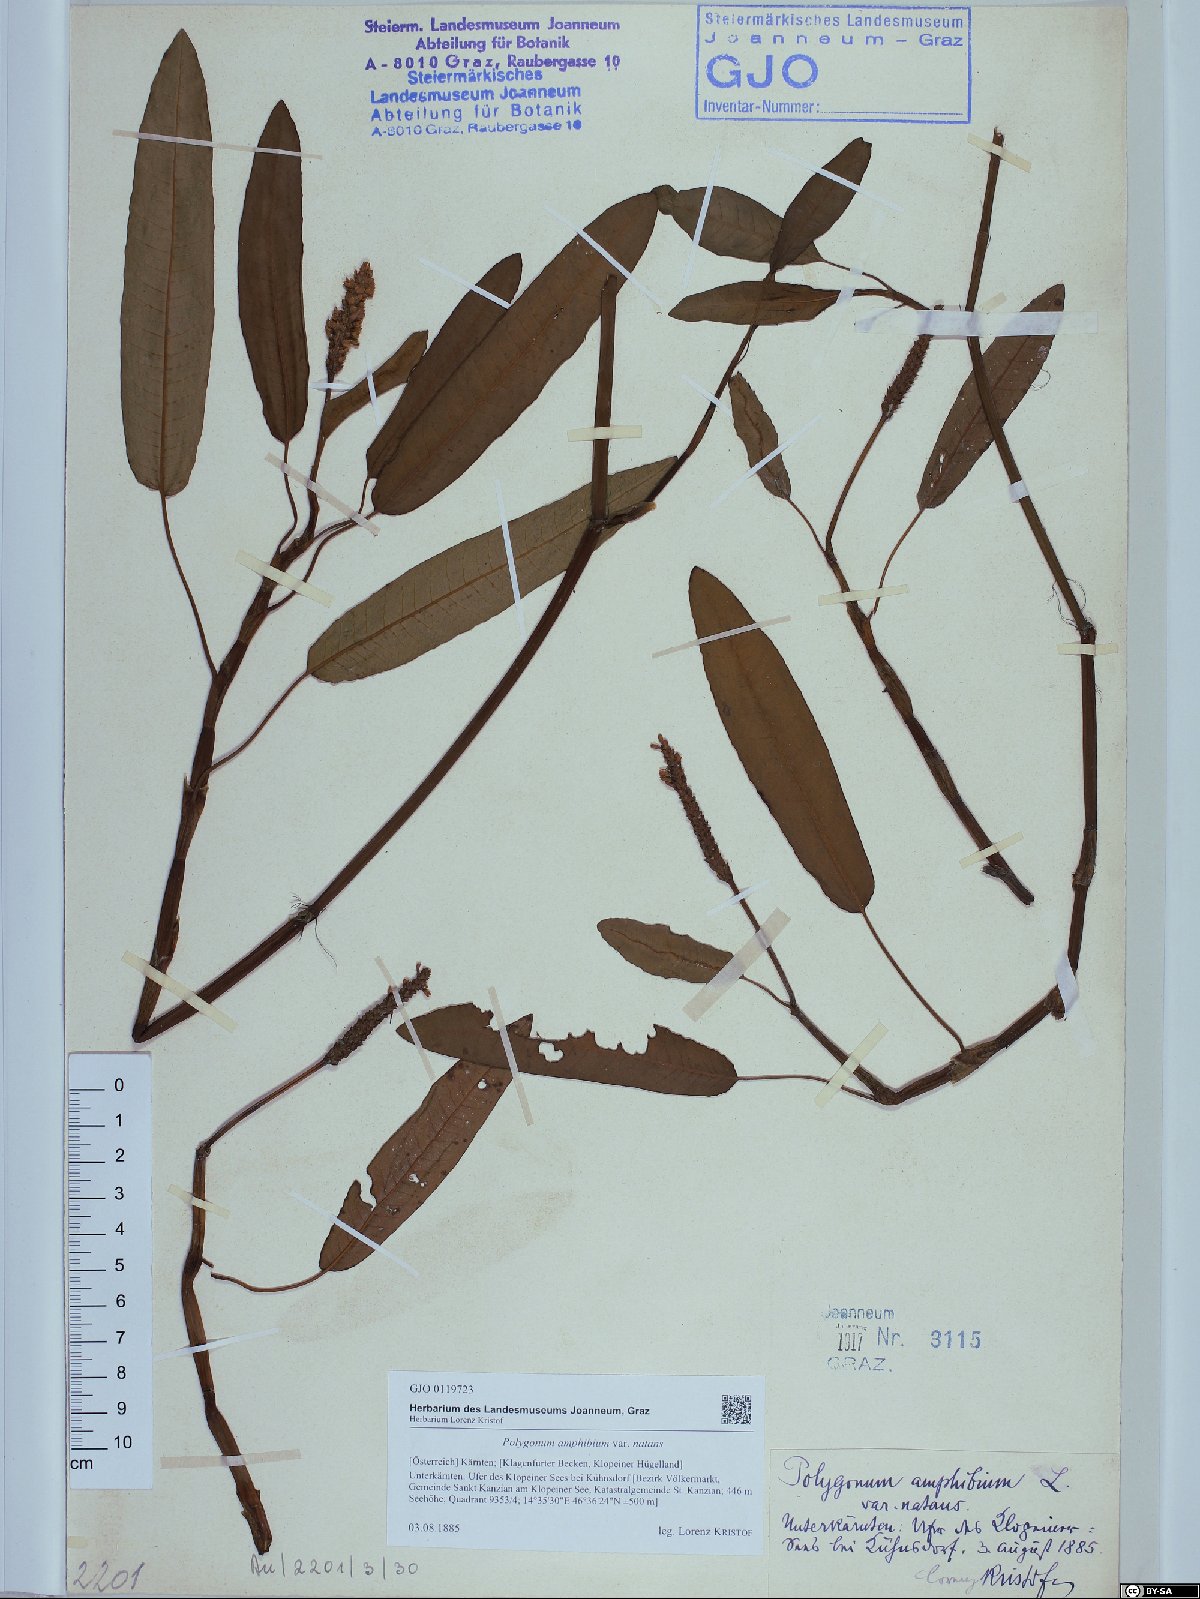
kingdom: Plantae
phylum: Tracheophyta
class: Magnoliopsida
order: Caryophyllales
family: Polygonaceae
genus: Persicaria
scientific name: Persicaria amphibia
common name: Amphibious bistort
